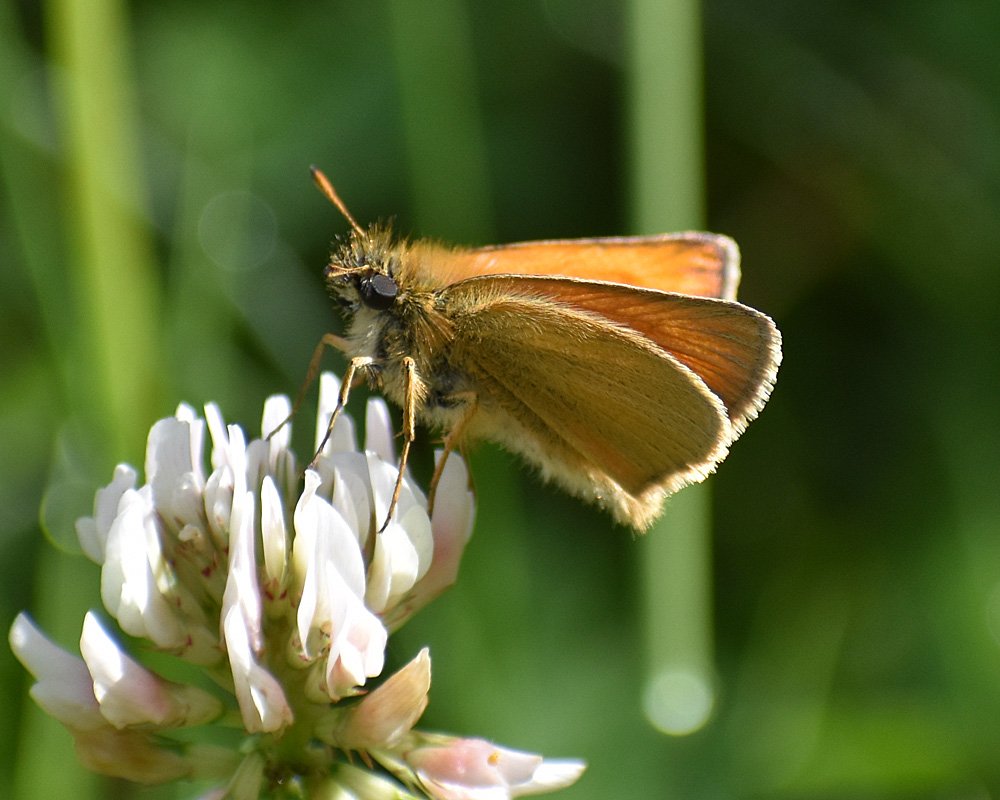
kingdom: Animalia
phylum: Arthropoda
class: Insecta
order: Lepidoptera
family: Hesperiidae
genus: Thymelicus
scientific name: Thymelicus lineola
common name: European Skipper
